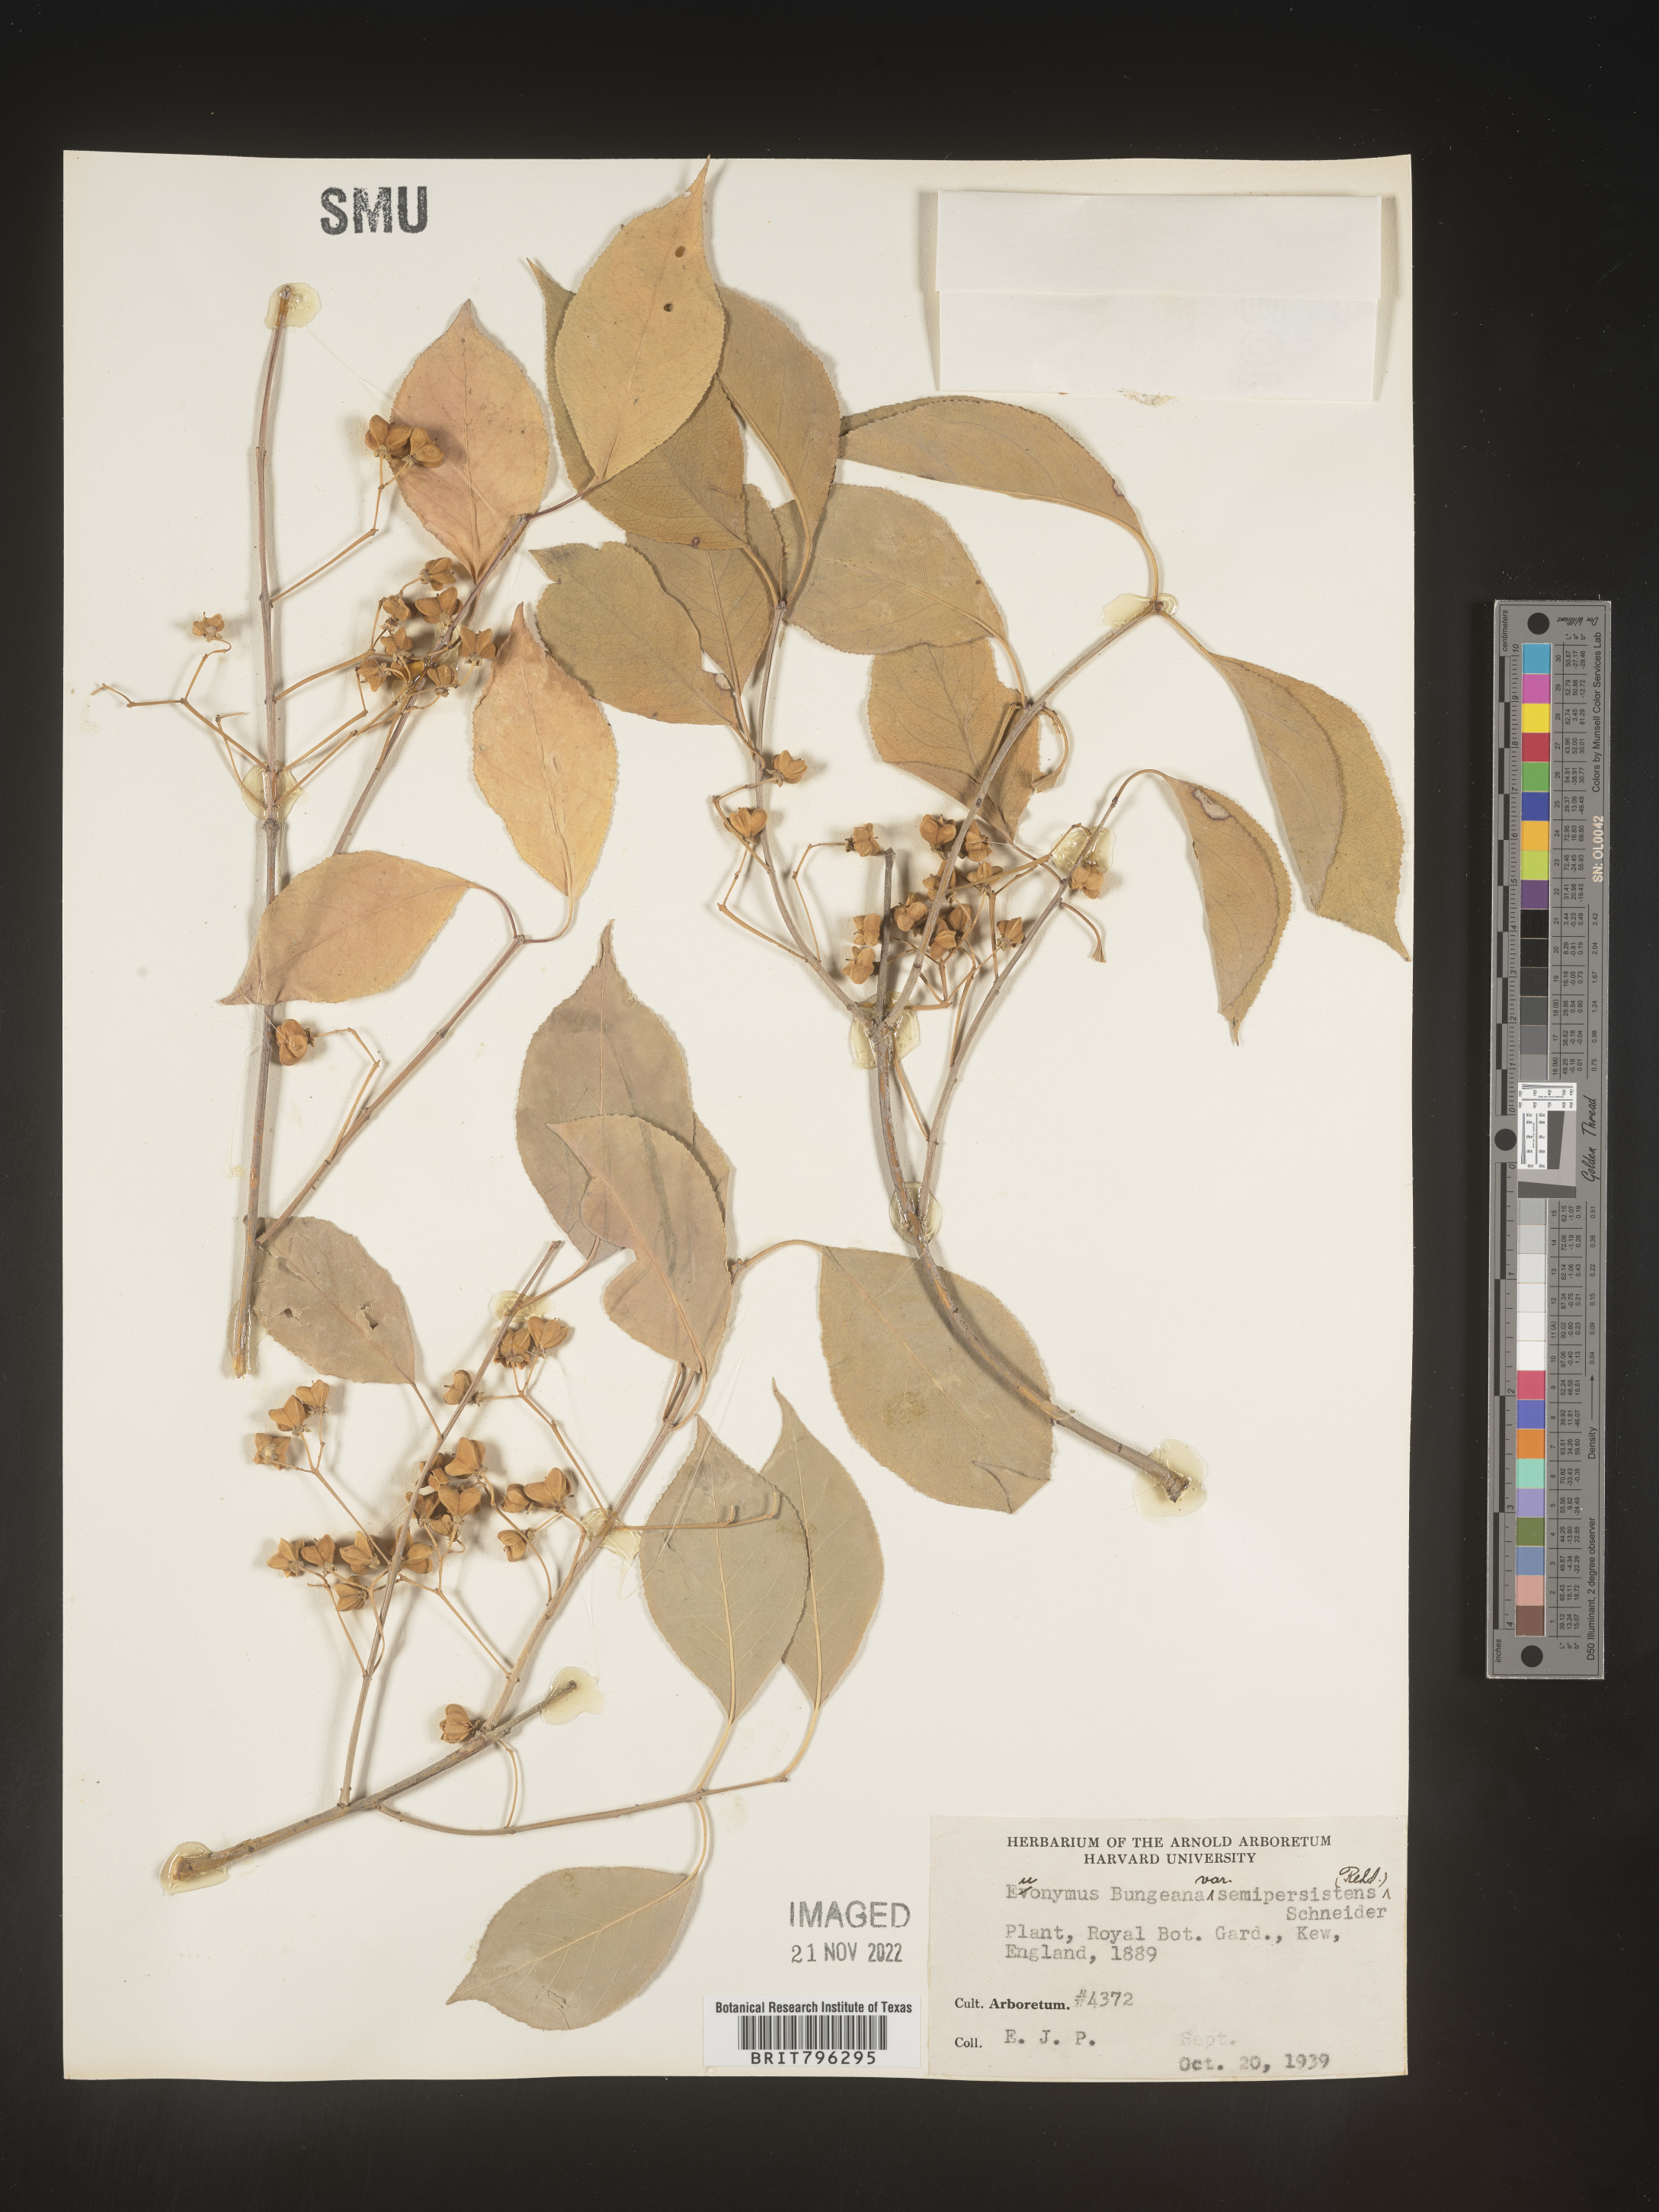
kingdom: Plantae
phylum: Tracheophyta
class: Magnoliopsida
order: Celastrales
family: Celastraceae
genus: Euonymus
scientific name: Euonymus
